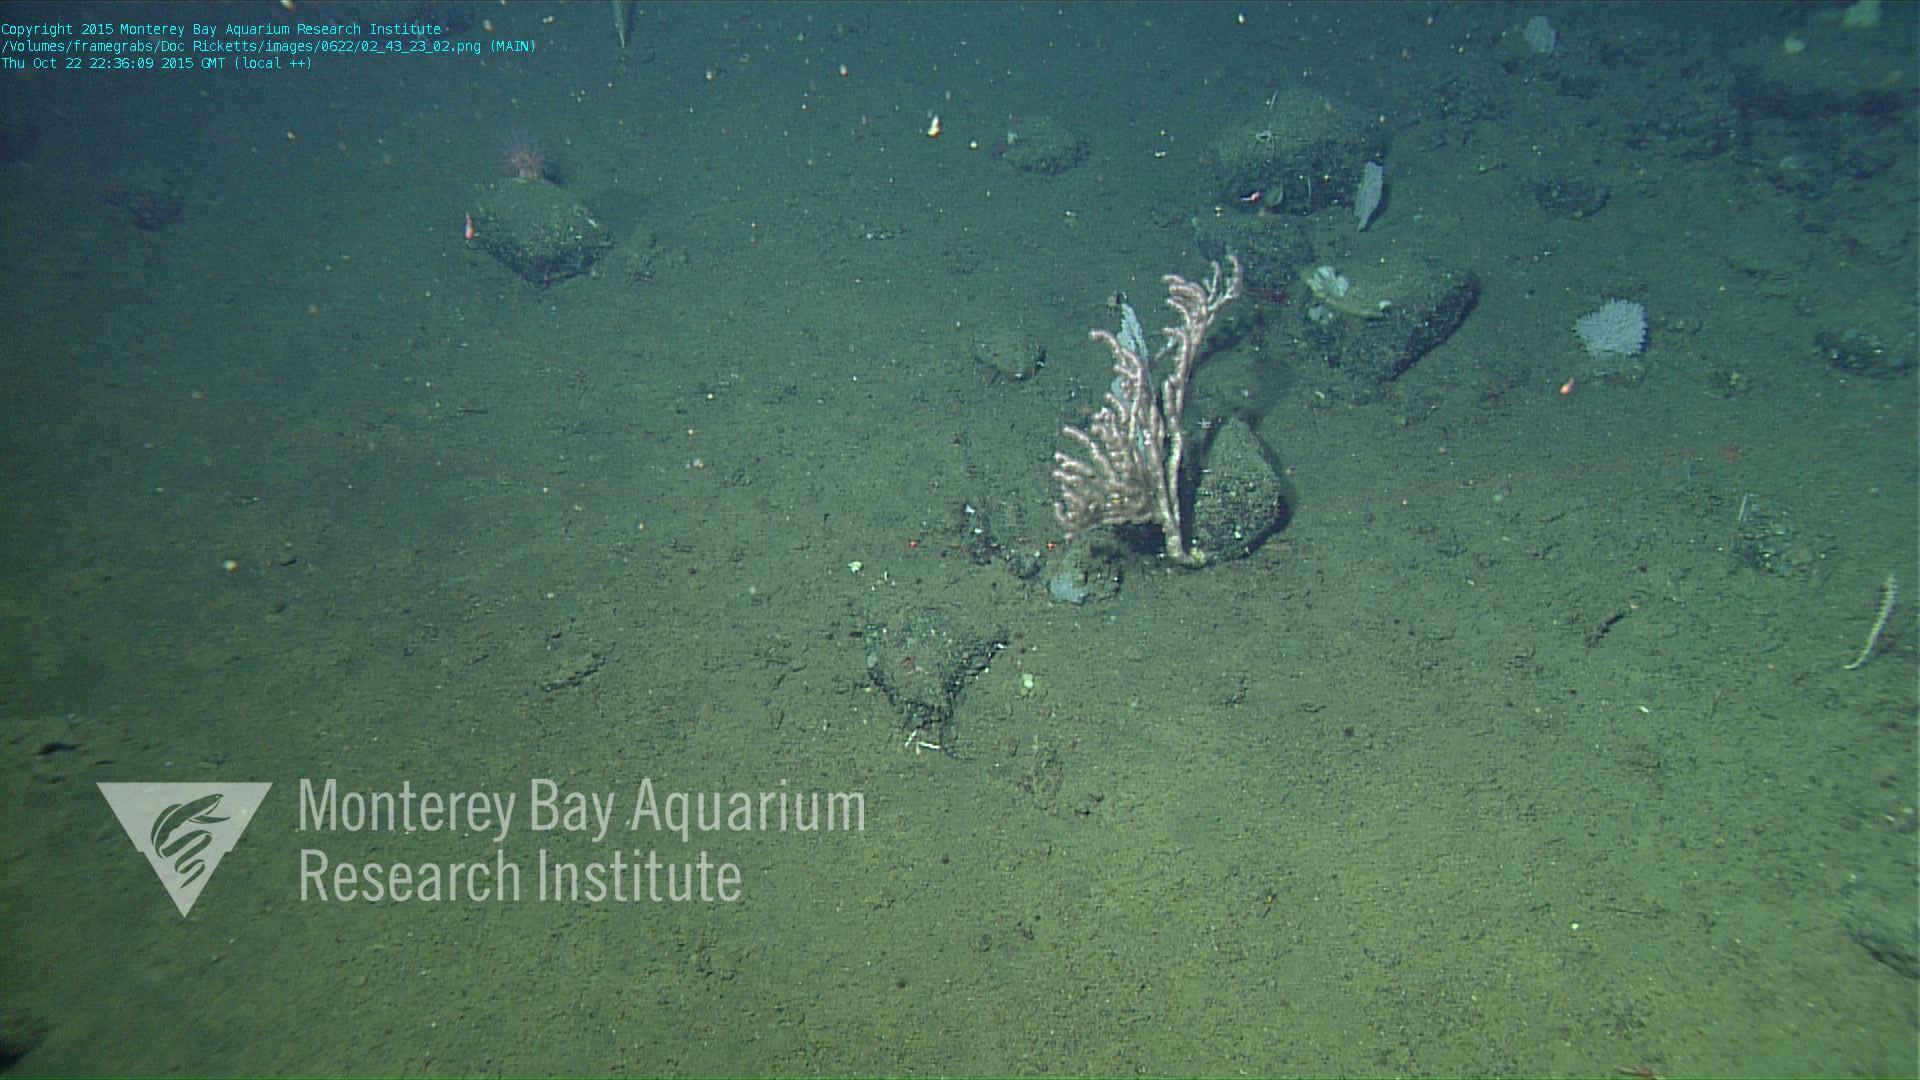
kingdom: Animalia
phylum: Cnidaria
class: Anthozoa
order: Scleralcyonacea
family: Coralliidae
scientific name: Coralliidae
